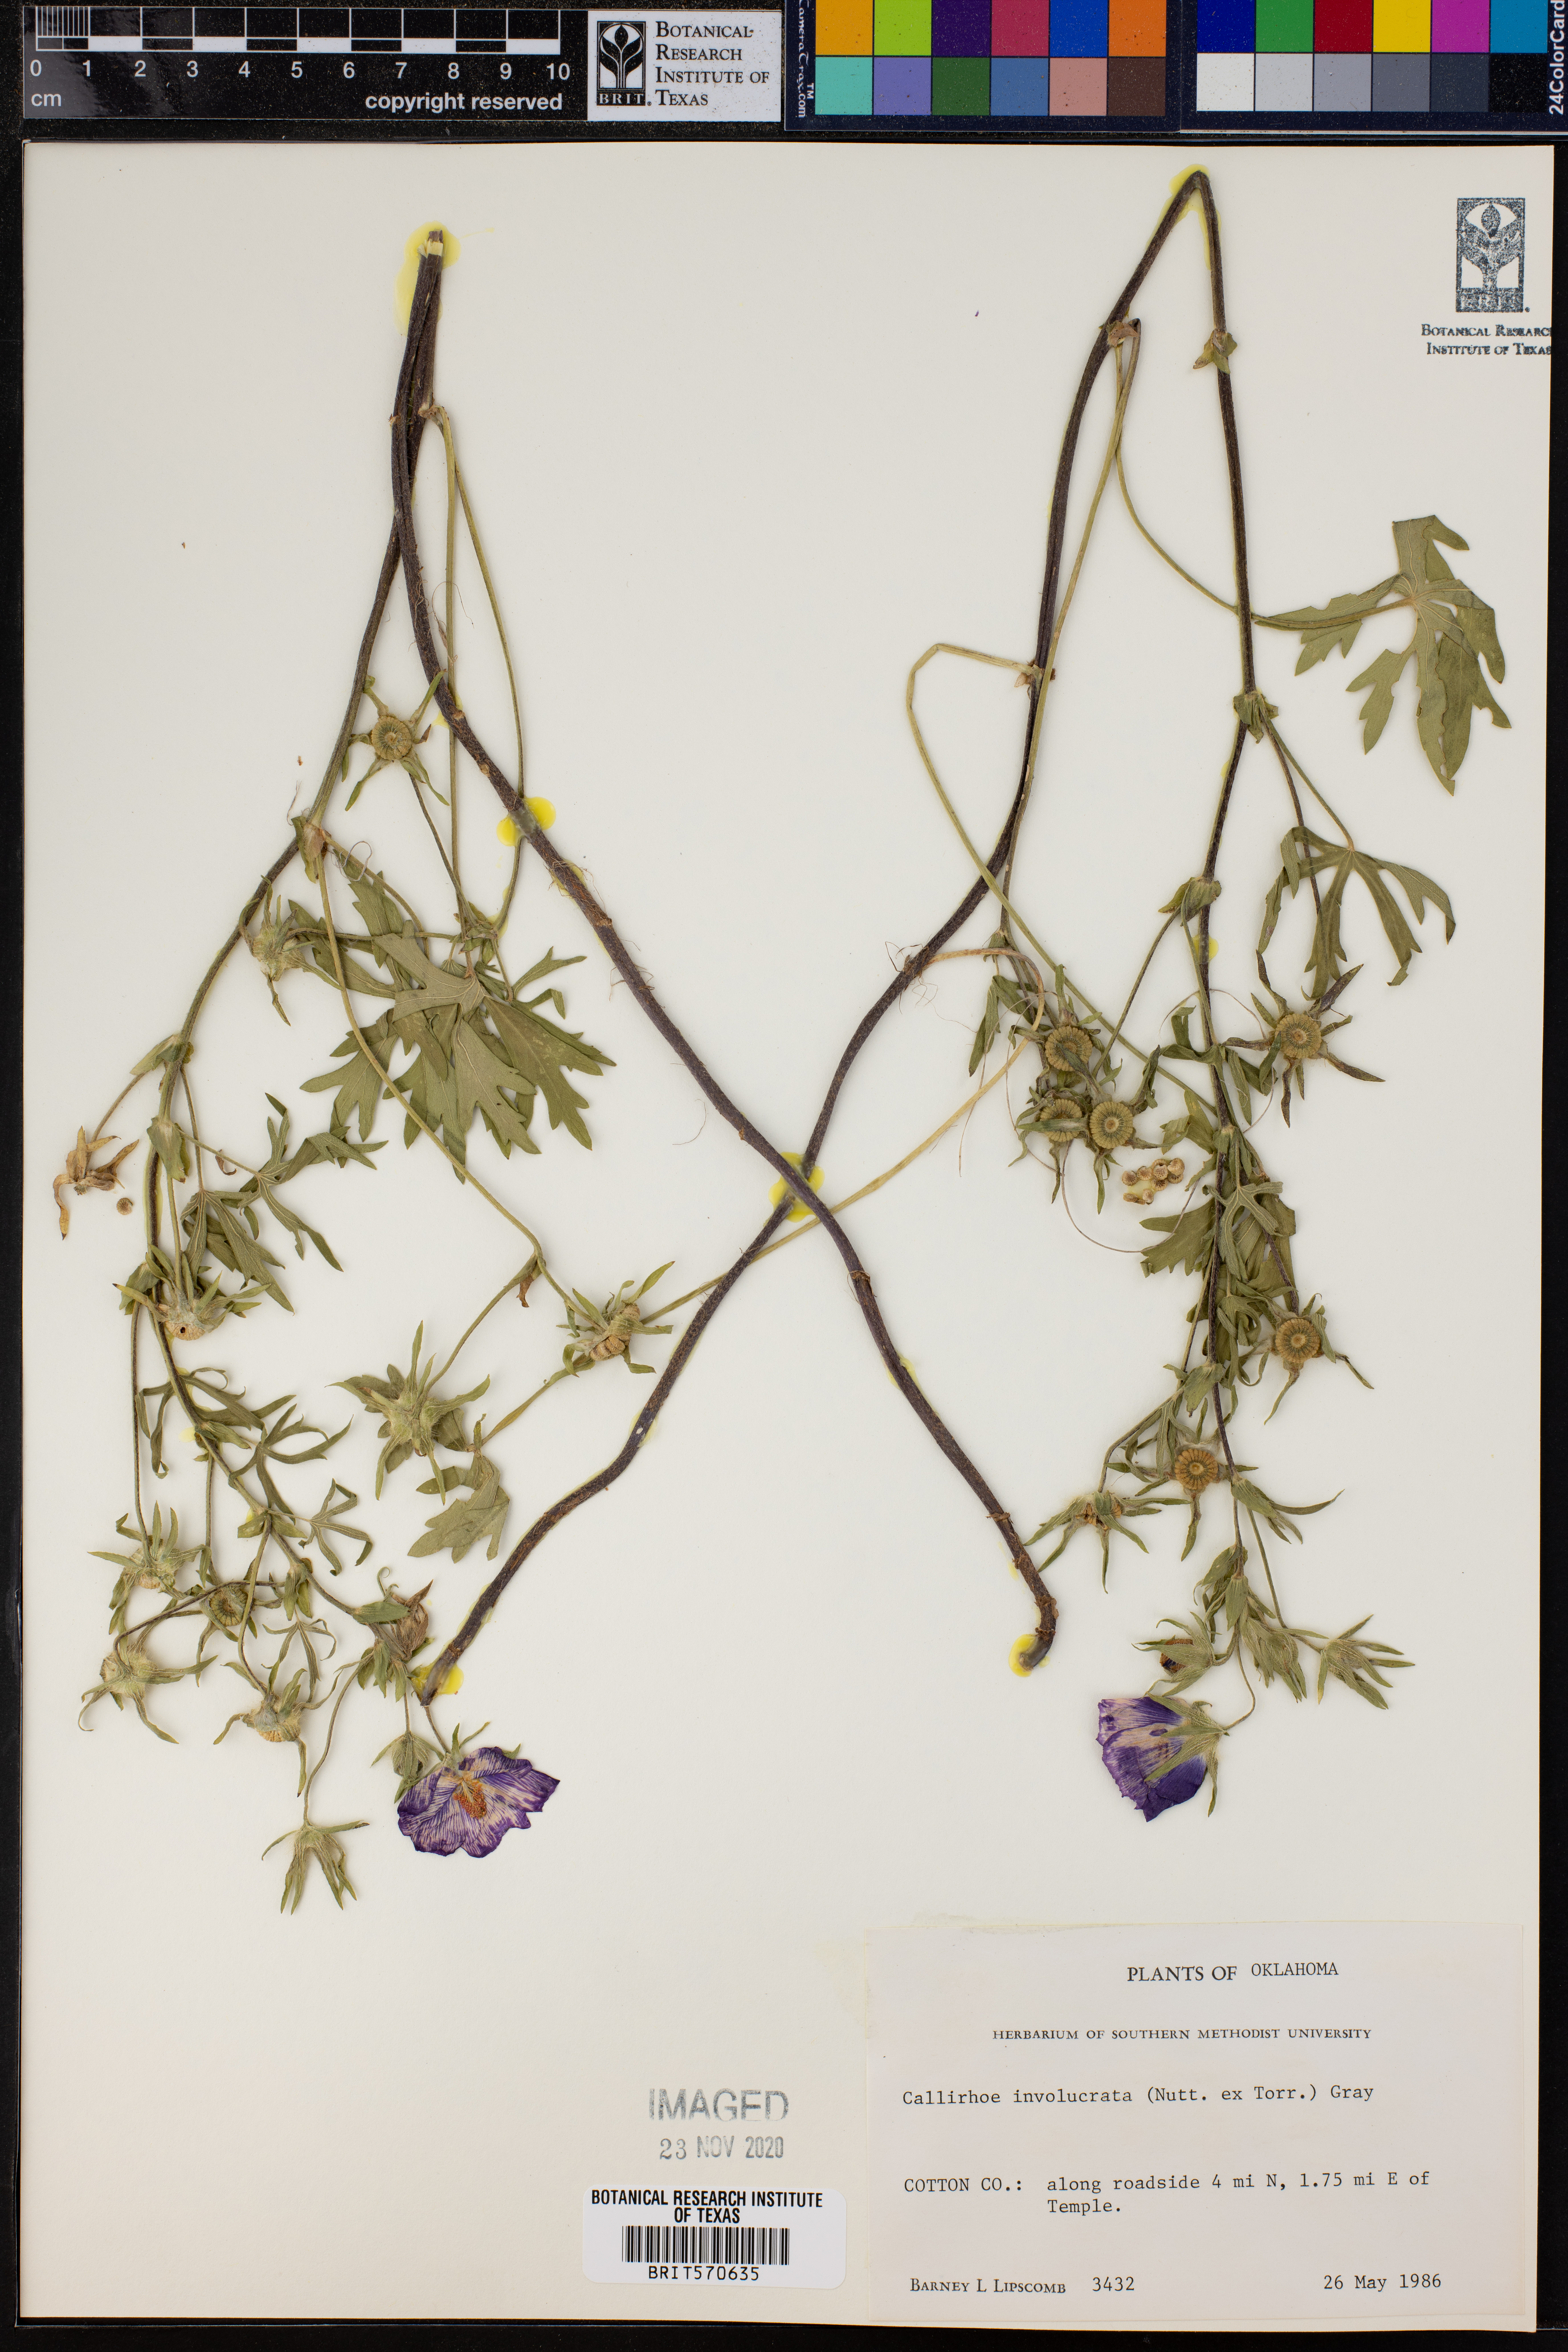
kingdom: Plantae
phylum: Tracheophyta
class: Magnoliopsida
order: Malvales
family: Malvaceae
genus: Callirhoe
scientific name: Callirhoe involucrata
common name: Purple poppy-mallow
